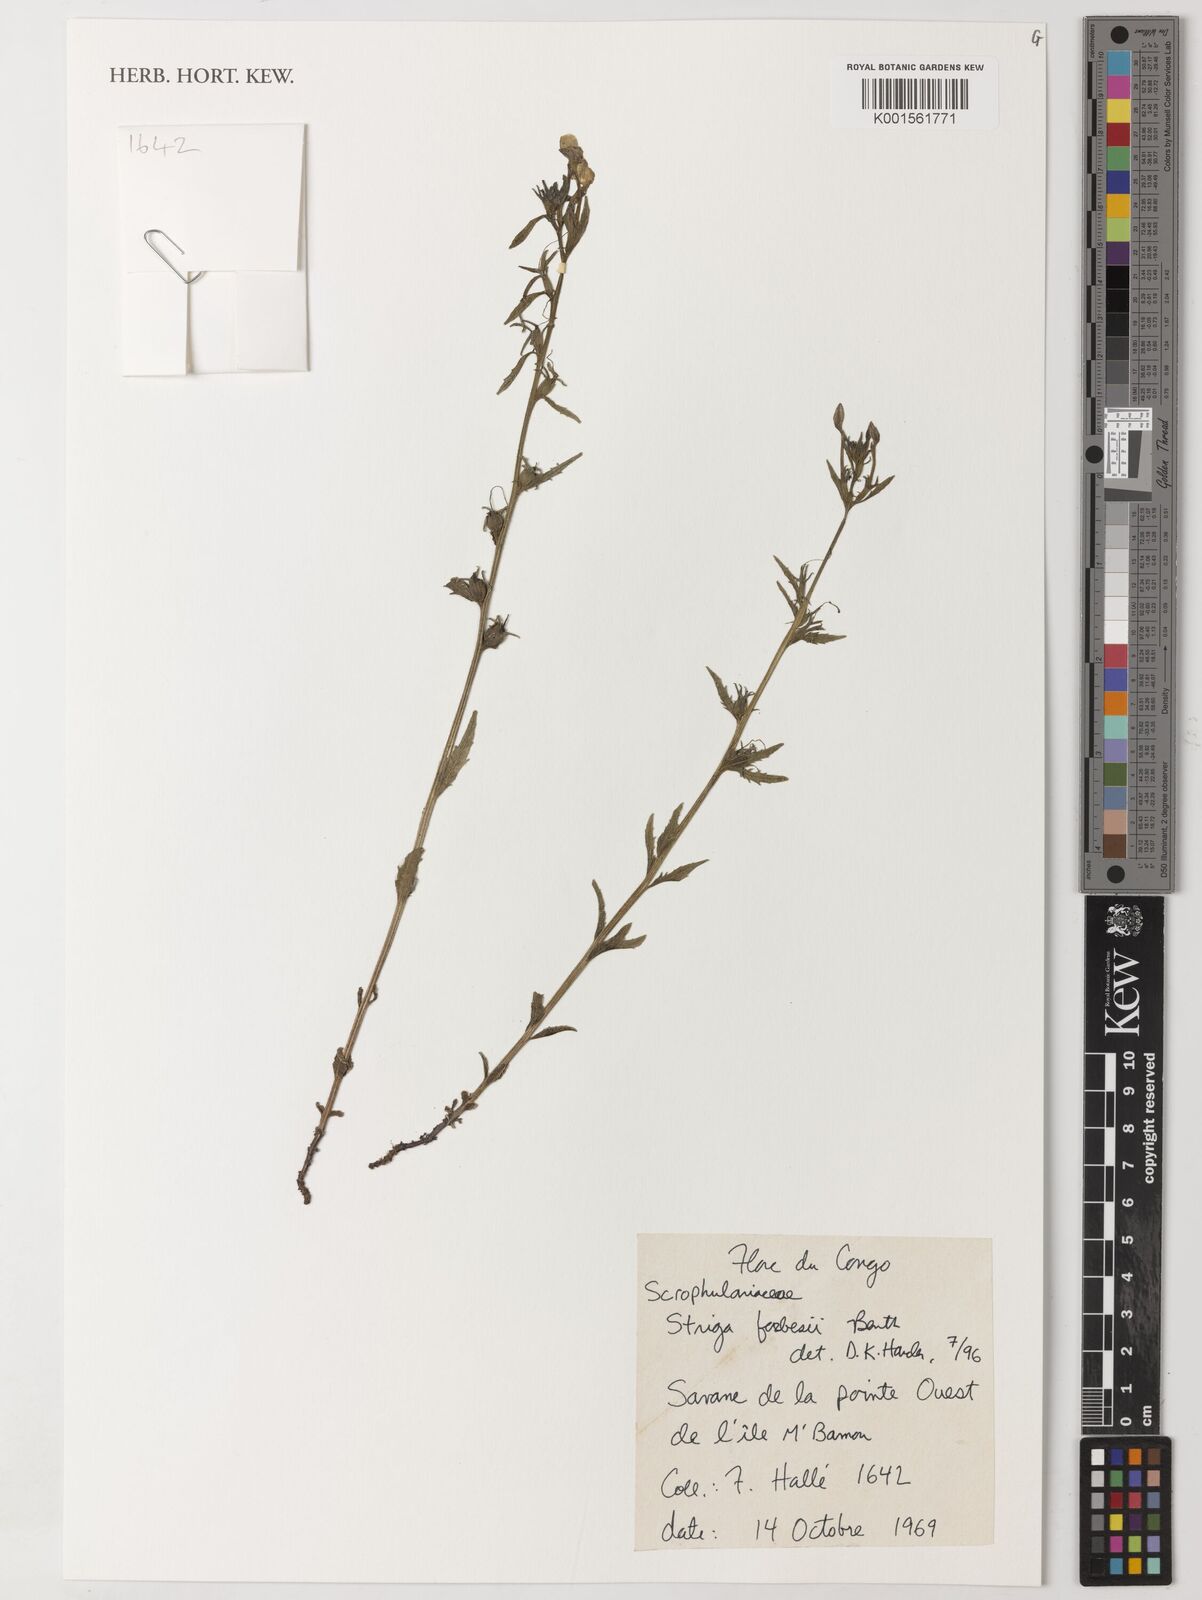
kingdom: Plantae
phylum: Tracheophyta
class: Magnoliopsida
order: Lamiales
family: Orobanchaceae
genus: Striga
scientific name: Striga forbesii
